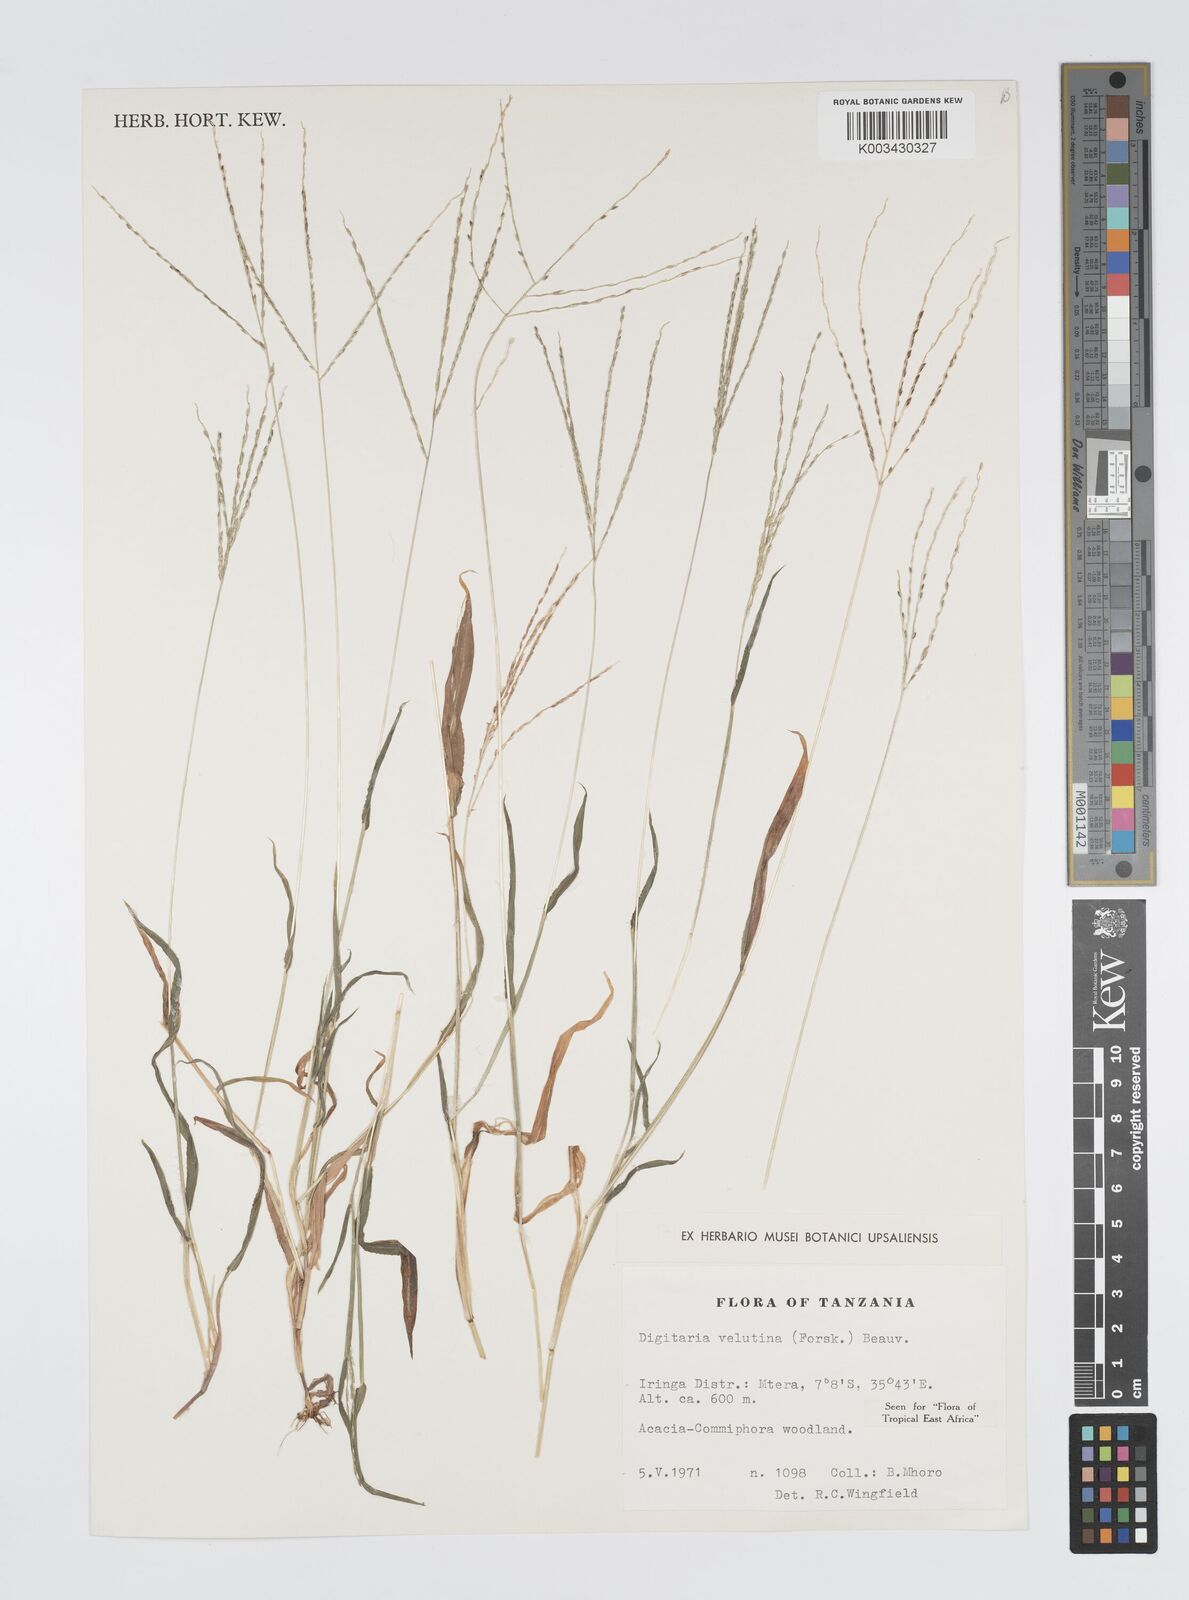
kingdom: Plantae
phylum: Tracheophyta
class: Liliopsida
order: Poales
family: Poaceae
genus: Digitaria
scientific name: Digitaria velutina
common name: Long-plume finger grass
